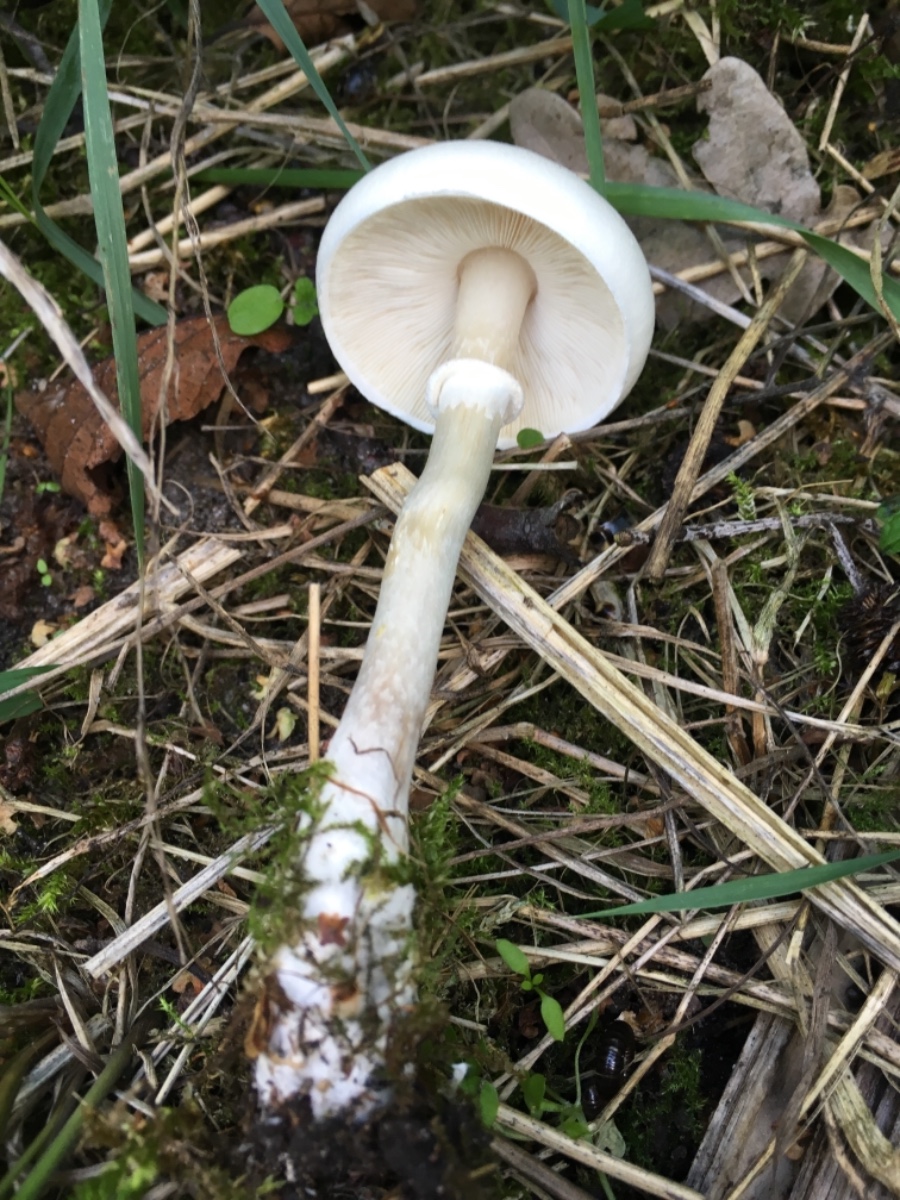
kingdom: Fungi
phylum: Basidiomycota
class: Agaricomycetes
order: Agaricales
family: Agaricaceae
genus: Leucoagaricus
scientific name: Leucoagaricus leucothites
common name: rosabladet silkehat
